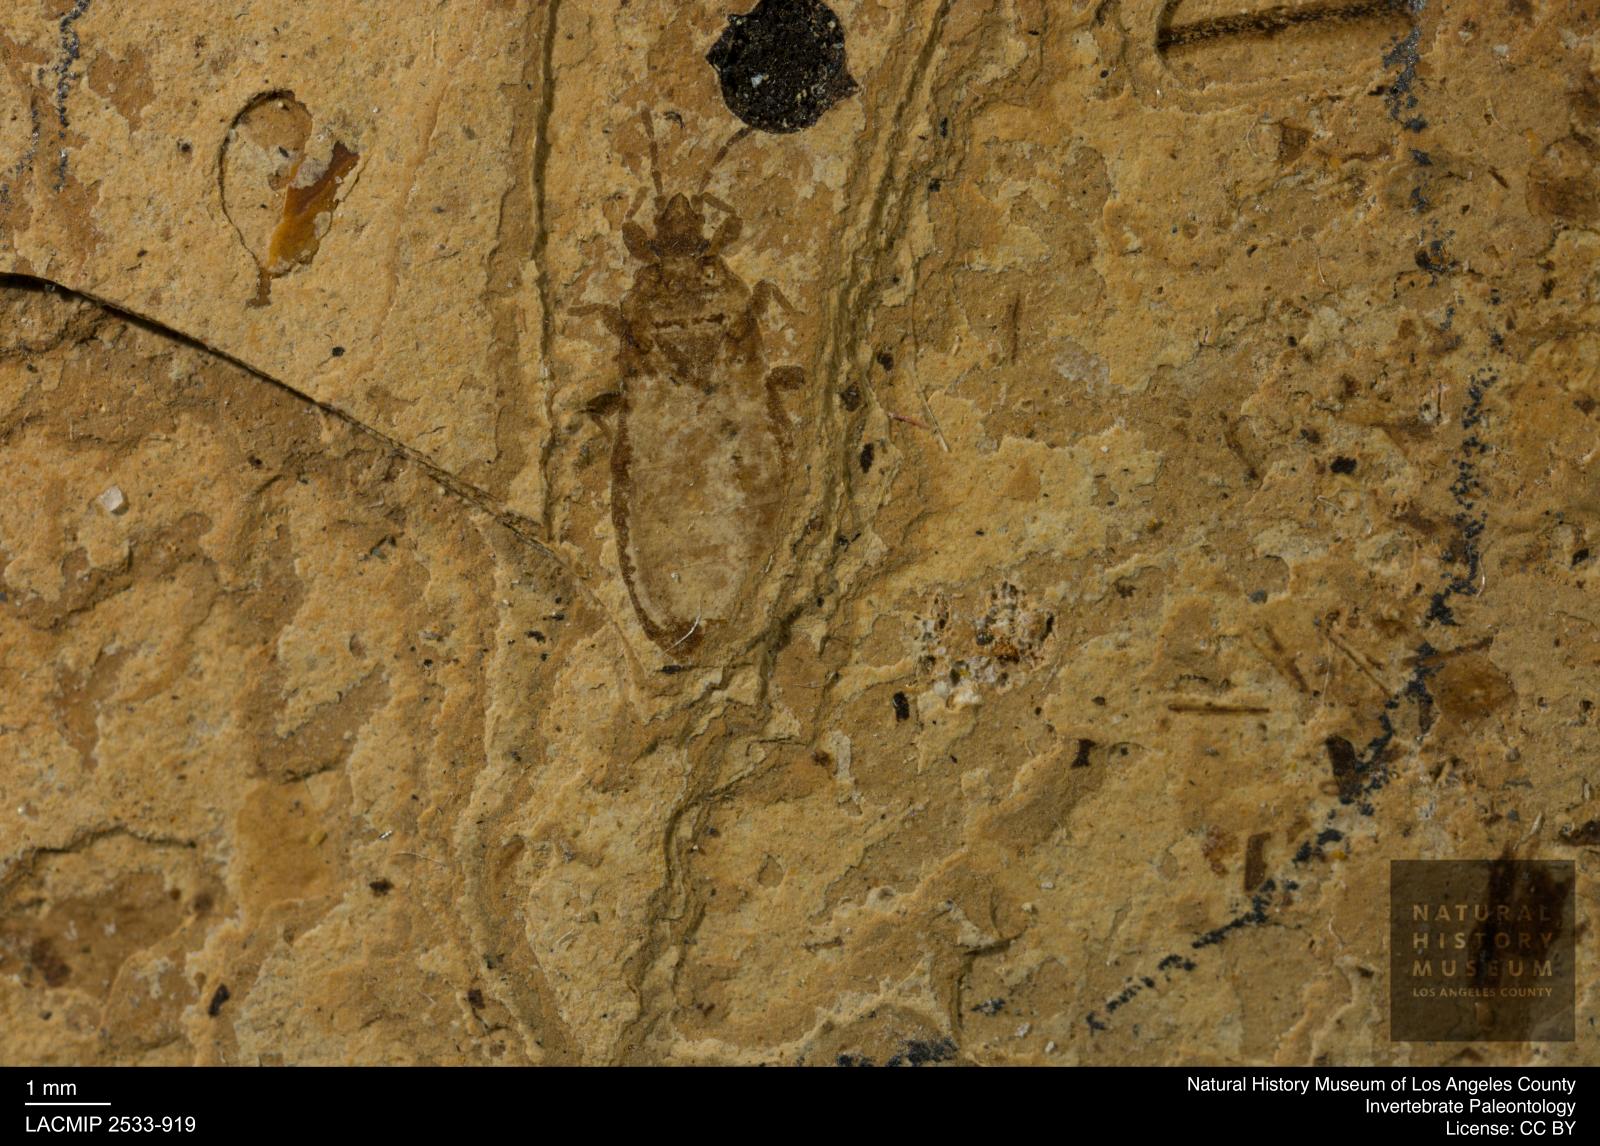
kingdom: Animalia
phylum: Arthropoda
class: Insecta
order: Hemiptera
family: Artheneidae
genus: Chilacis
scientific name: Chilacis univestis
